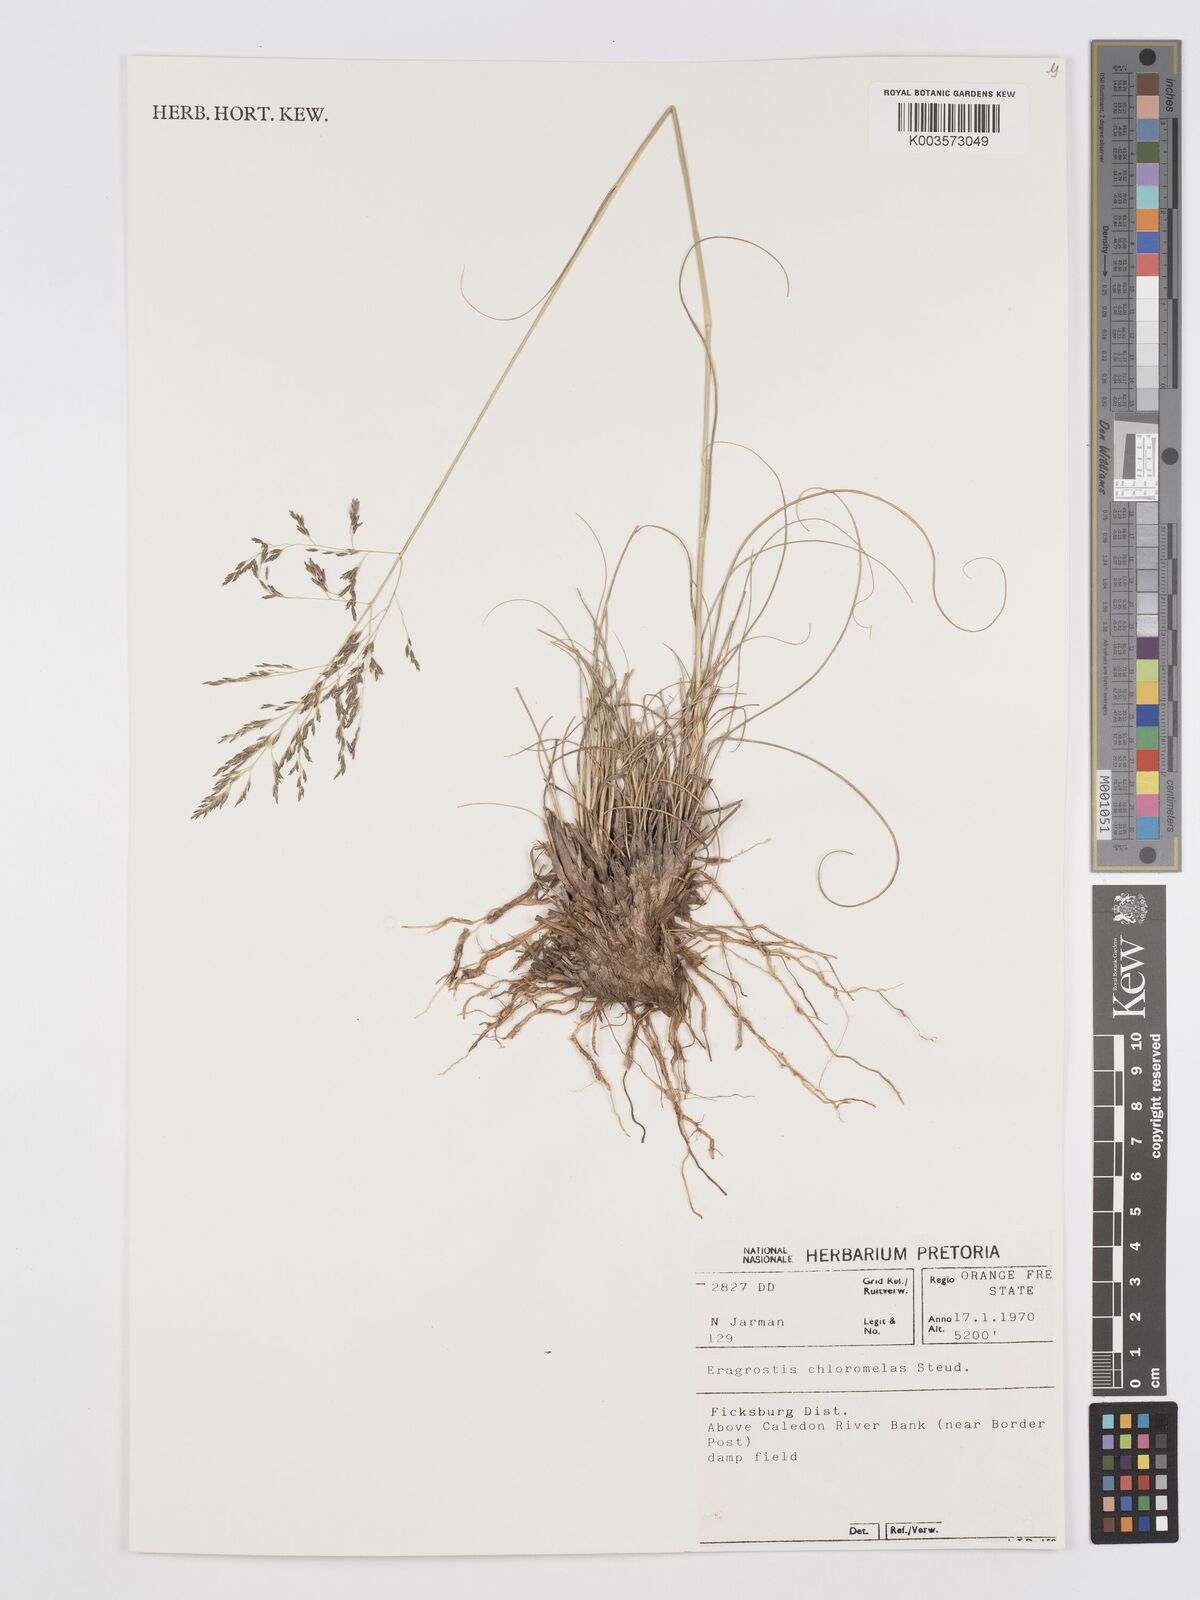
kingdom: Plantae
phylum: Tracheophyta
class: Liliopsida
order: Poales
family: Poaceae
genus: Eragrostis
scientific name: Eragrostis curvula
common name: African love-grass
